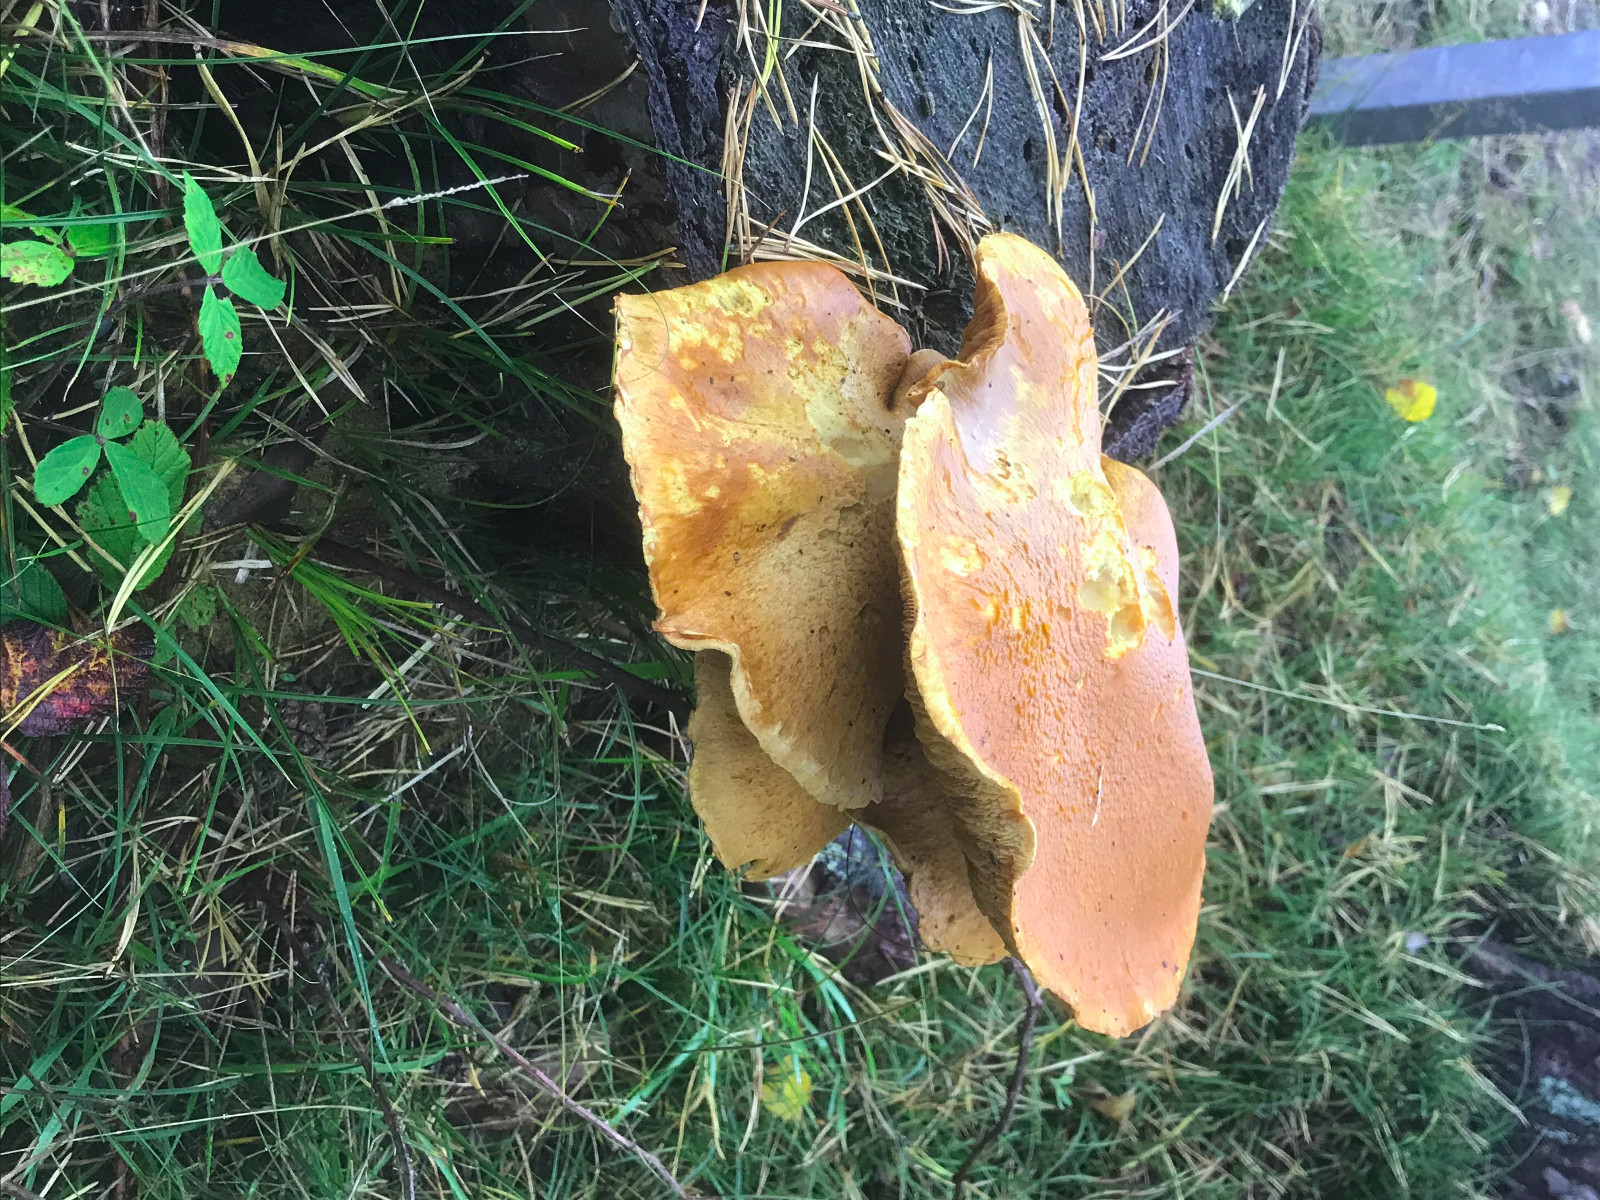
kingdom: Fungi
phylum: Basidiomycota
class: Agaricomycetes
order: Agaricales
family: Hymenogastraceae
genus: Gymnopilus
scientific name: Gymnopilus spectabilis
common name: fibret flammehat
